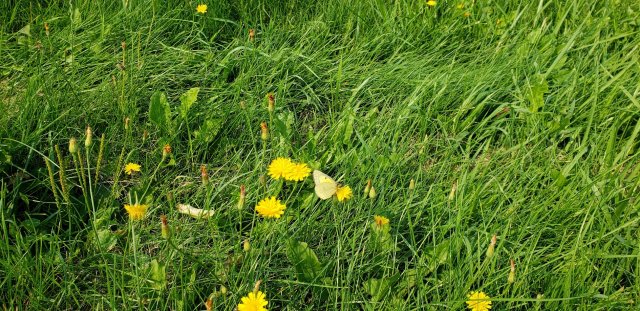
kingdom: Animalia
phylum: Arthropoda
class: Insecta
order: Lepidoptera
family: Pieridae
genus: Colias
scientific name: Colias philodice
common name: Clouded Sulphur
